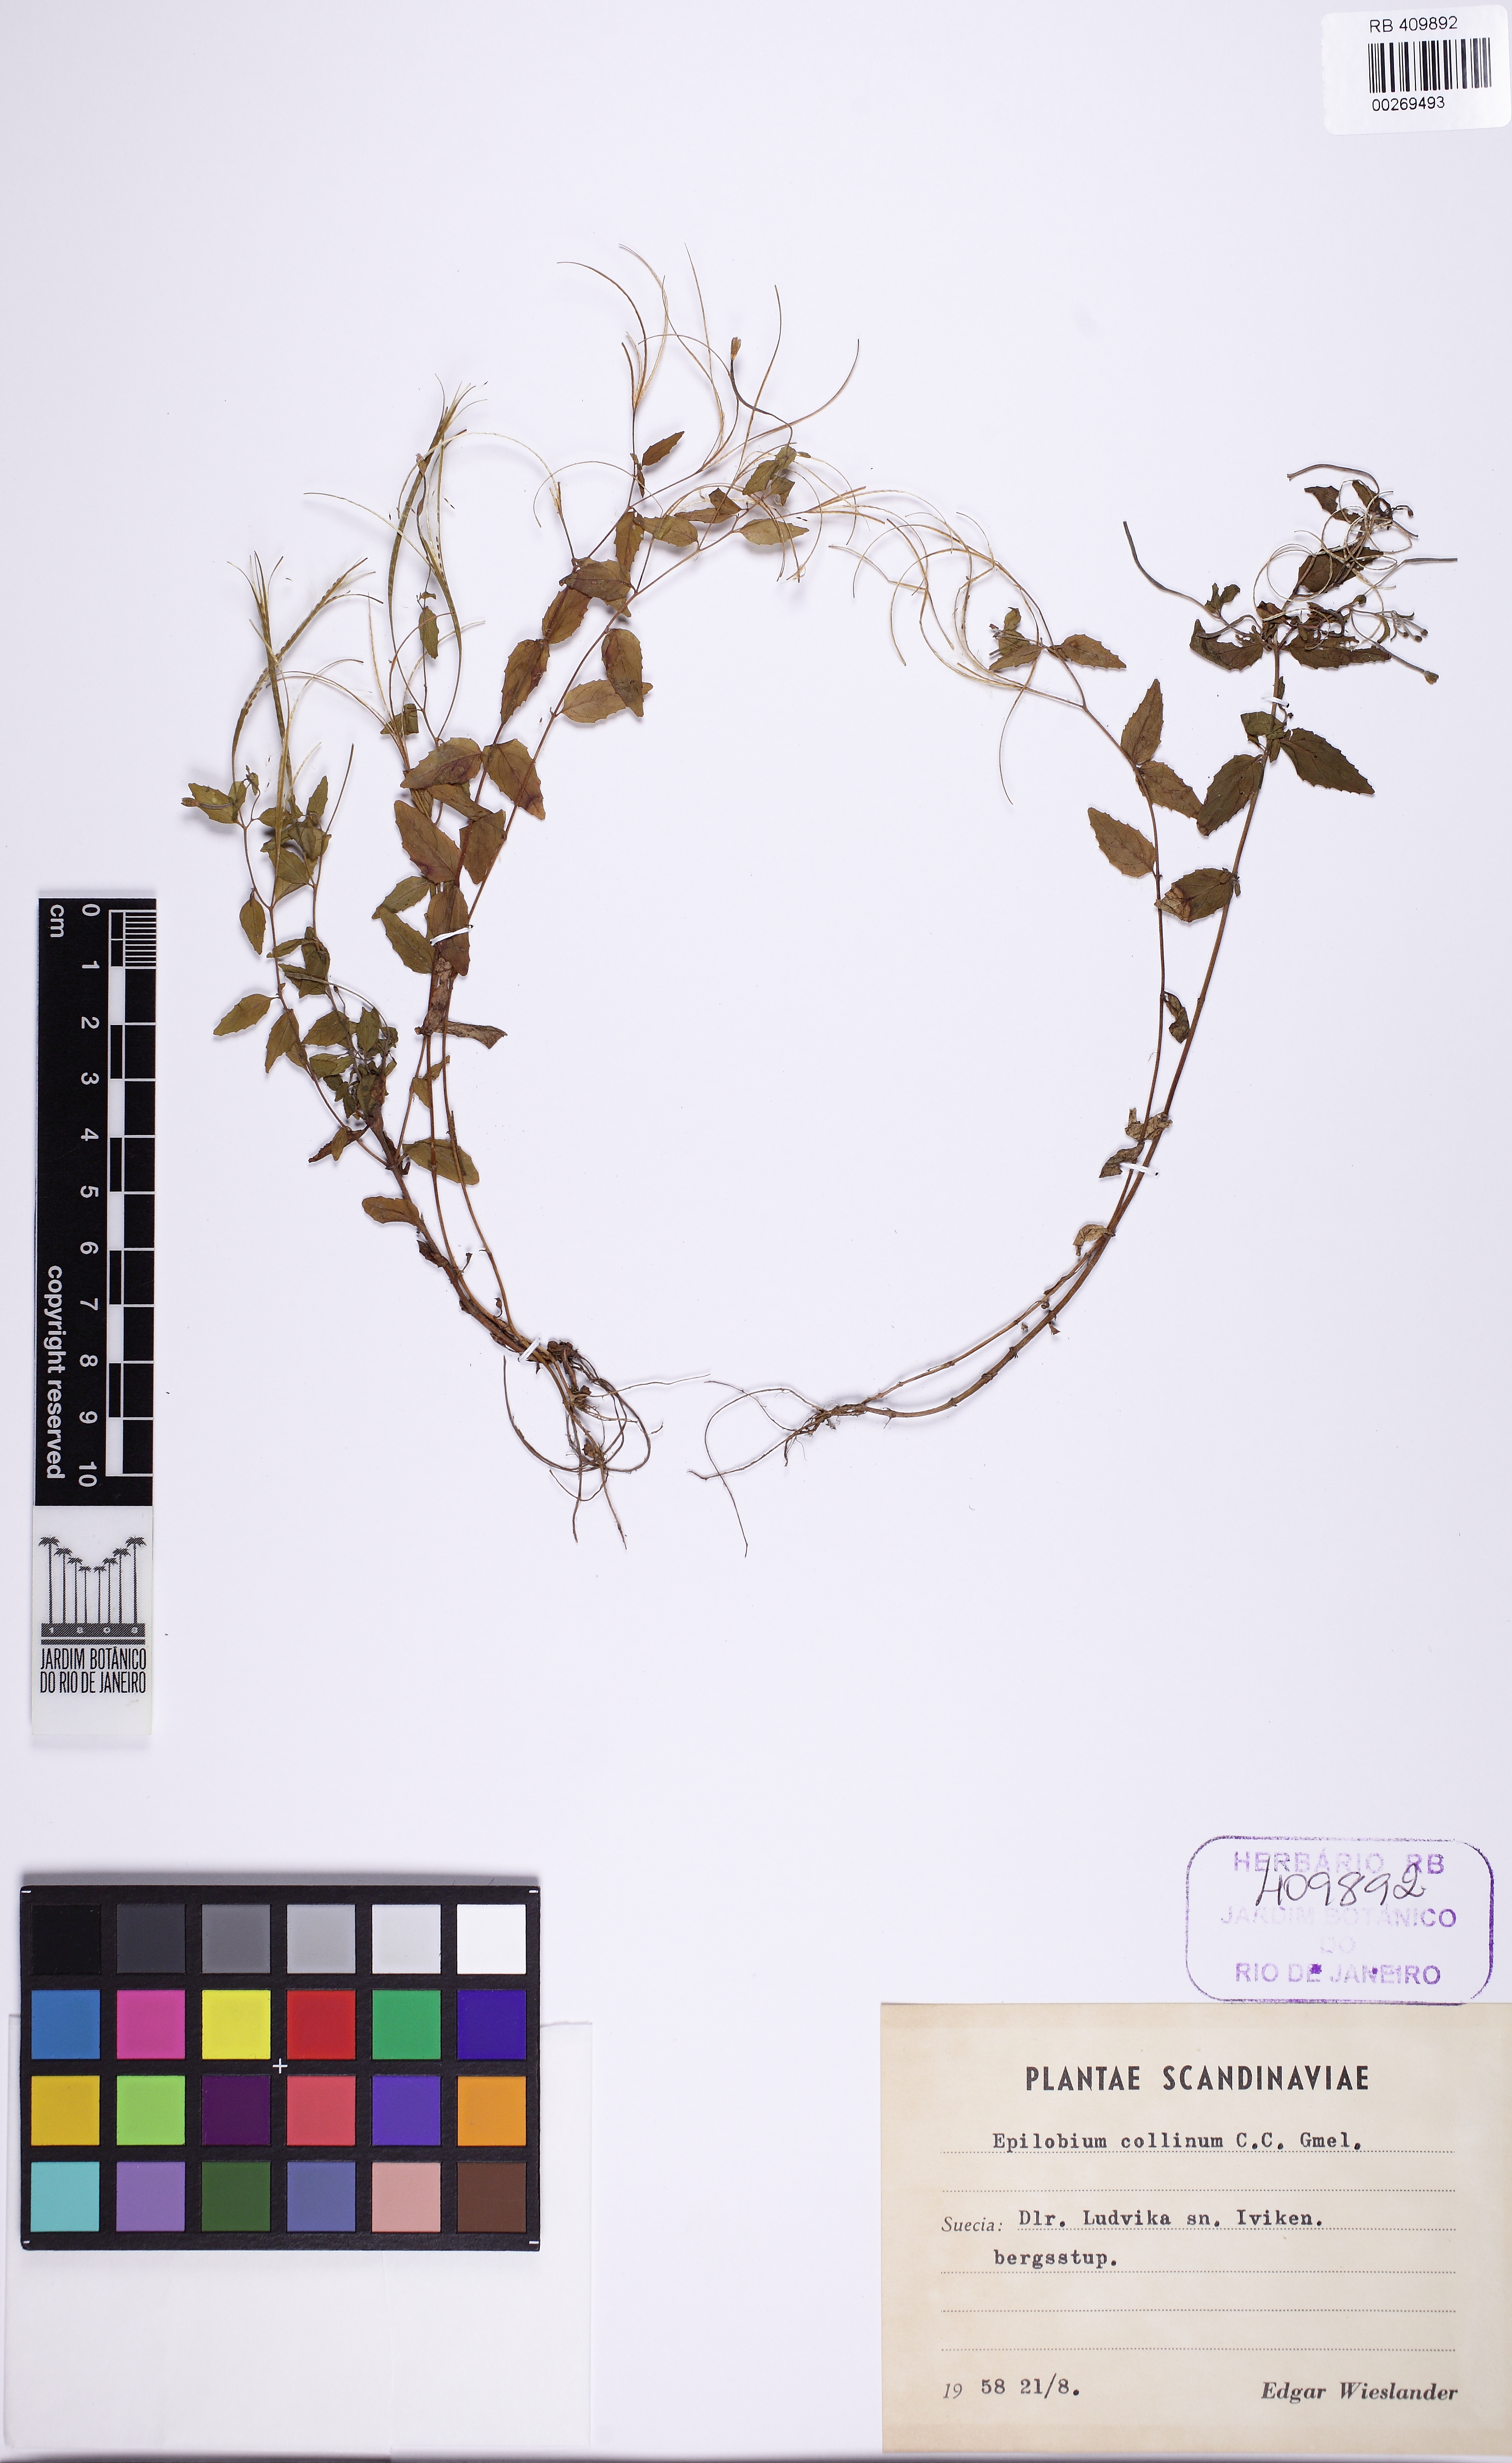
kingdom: Plantae
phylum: Tracheophyta
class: Magnoliopsida
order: Myrtales
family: Onagraceae
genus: Epilobium
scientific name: Epilobium collinum
